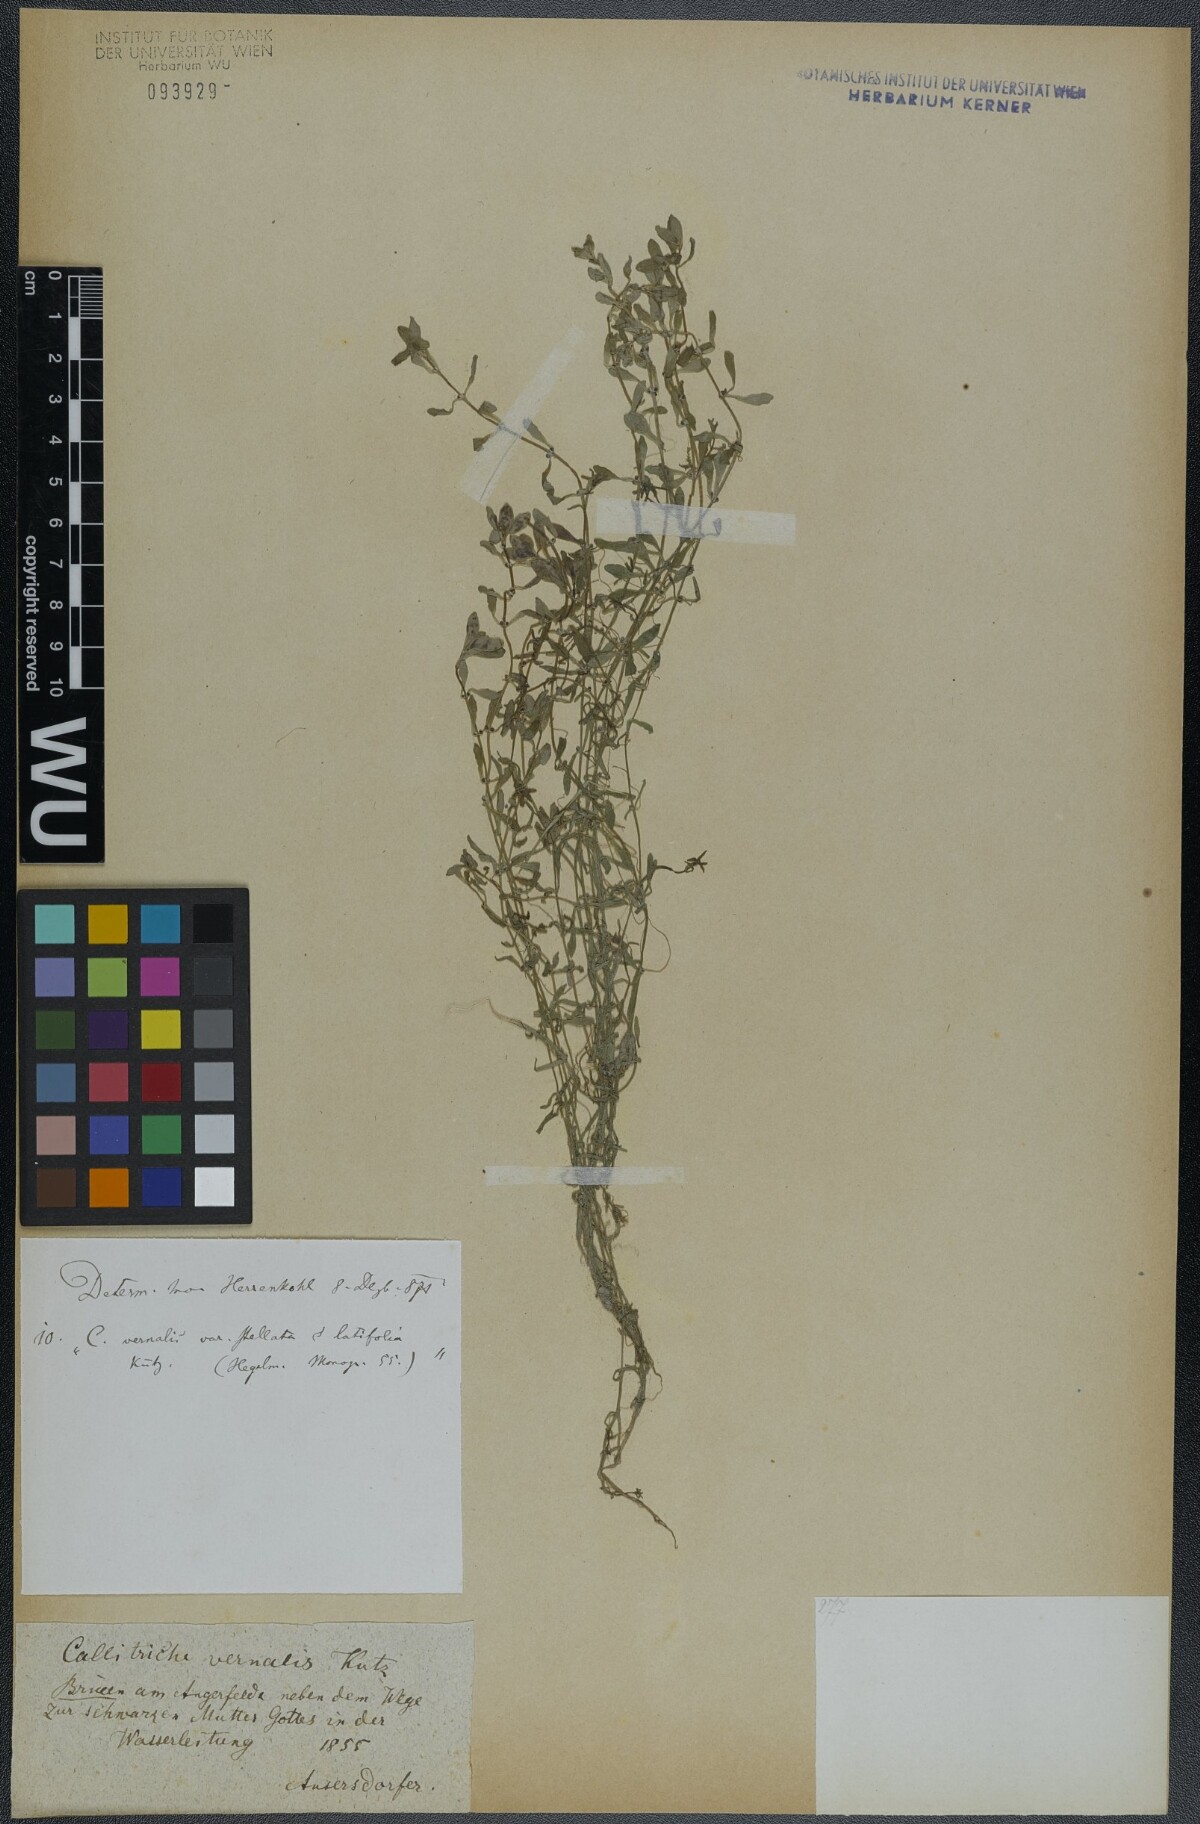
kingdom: Plantae
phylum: Tracheophyta
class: Magnoliopsida
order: Lamiales
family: Plantaginaceae
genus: Callitriche
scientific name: Callitriche palustris
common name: Spring water-starwort
